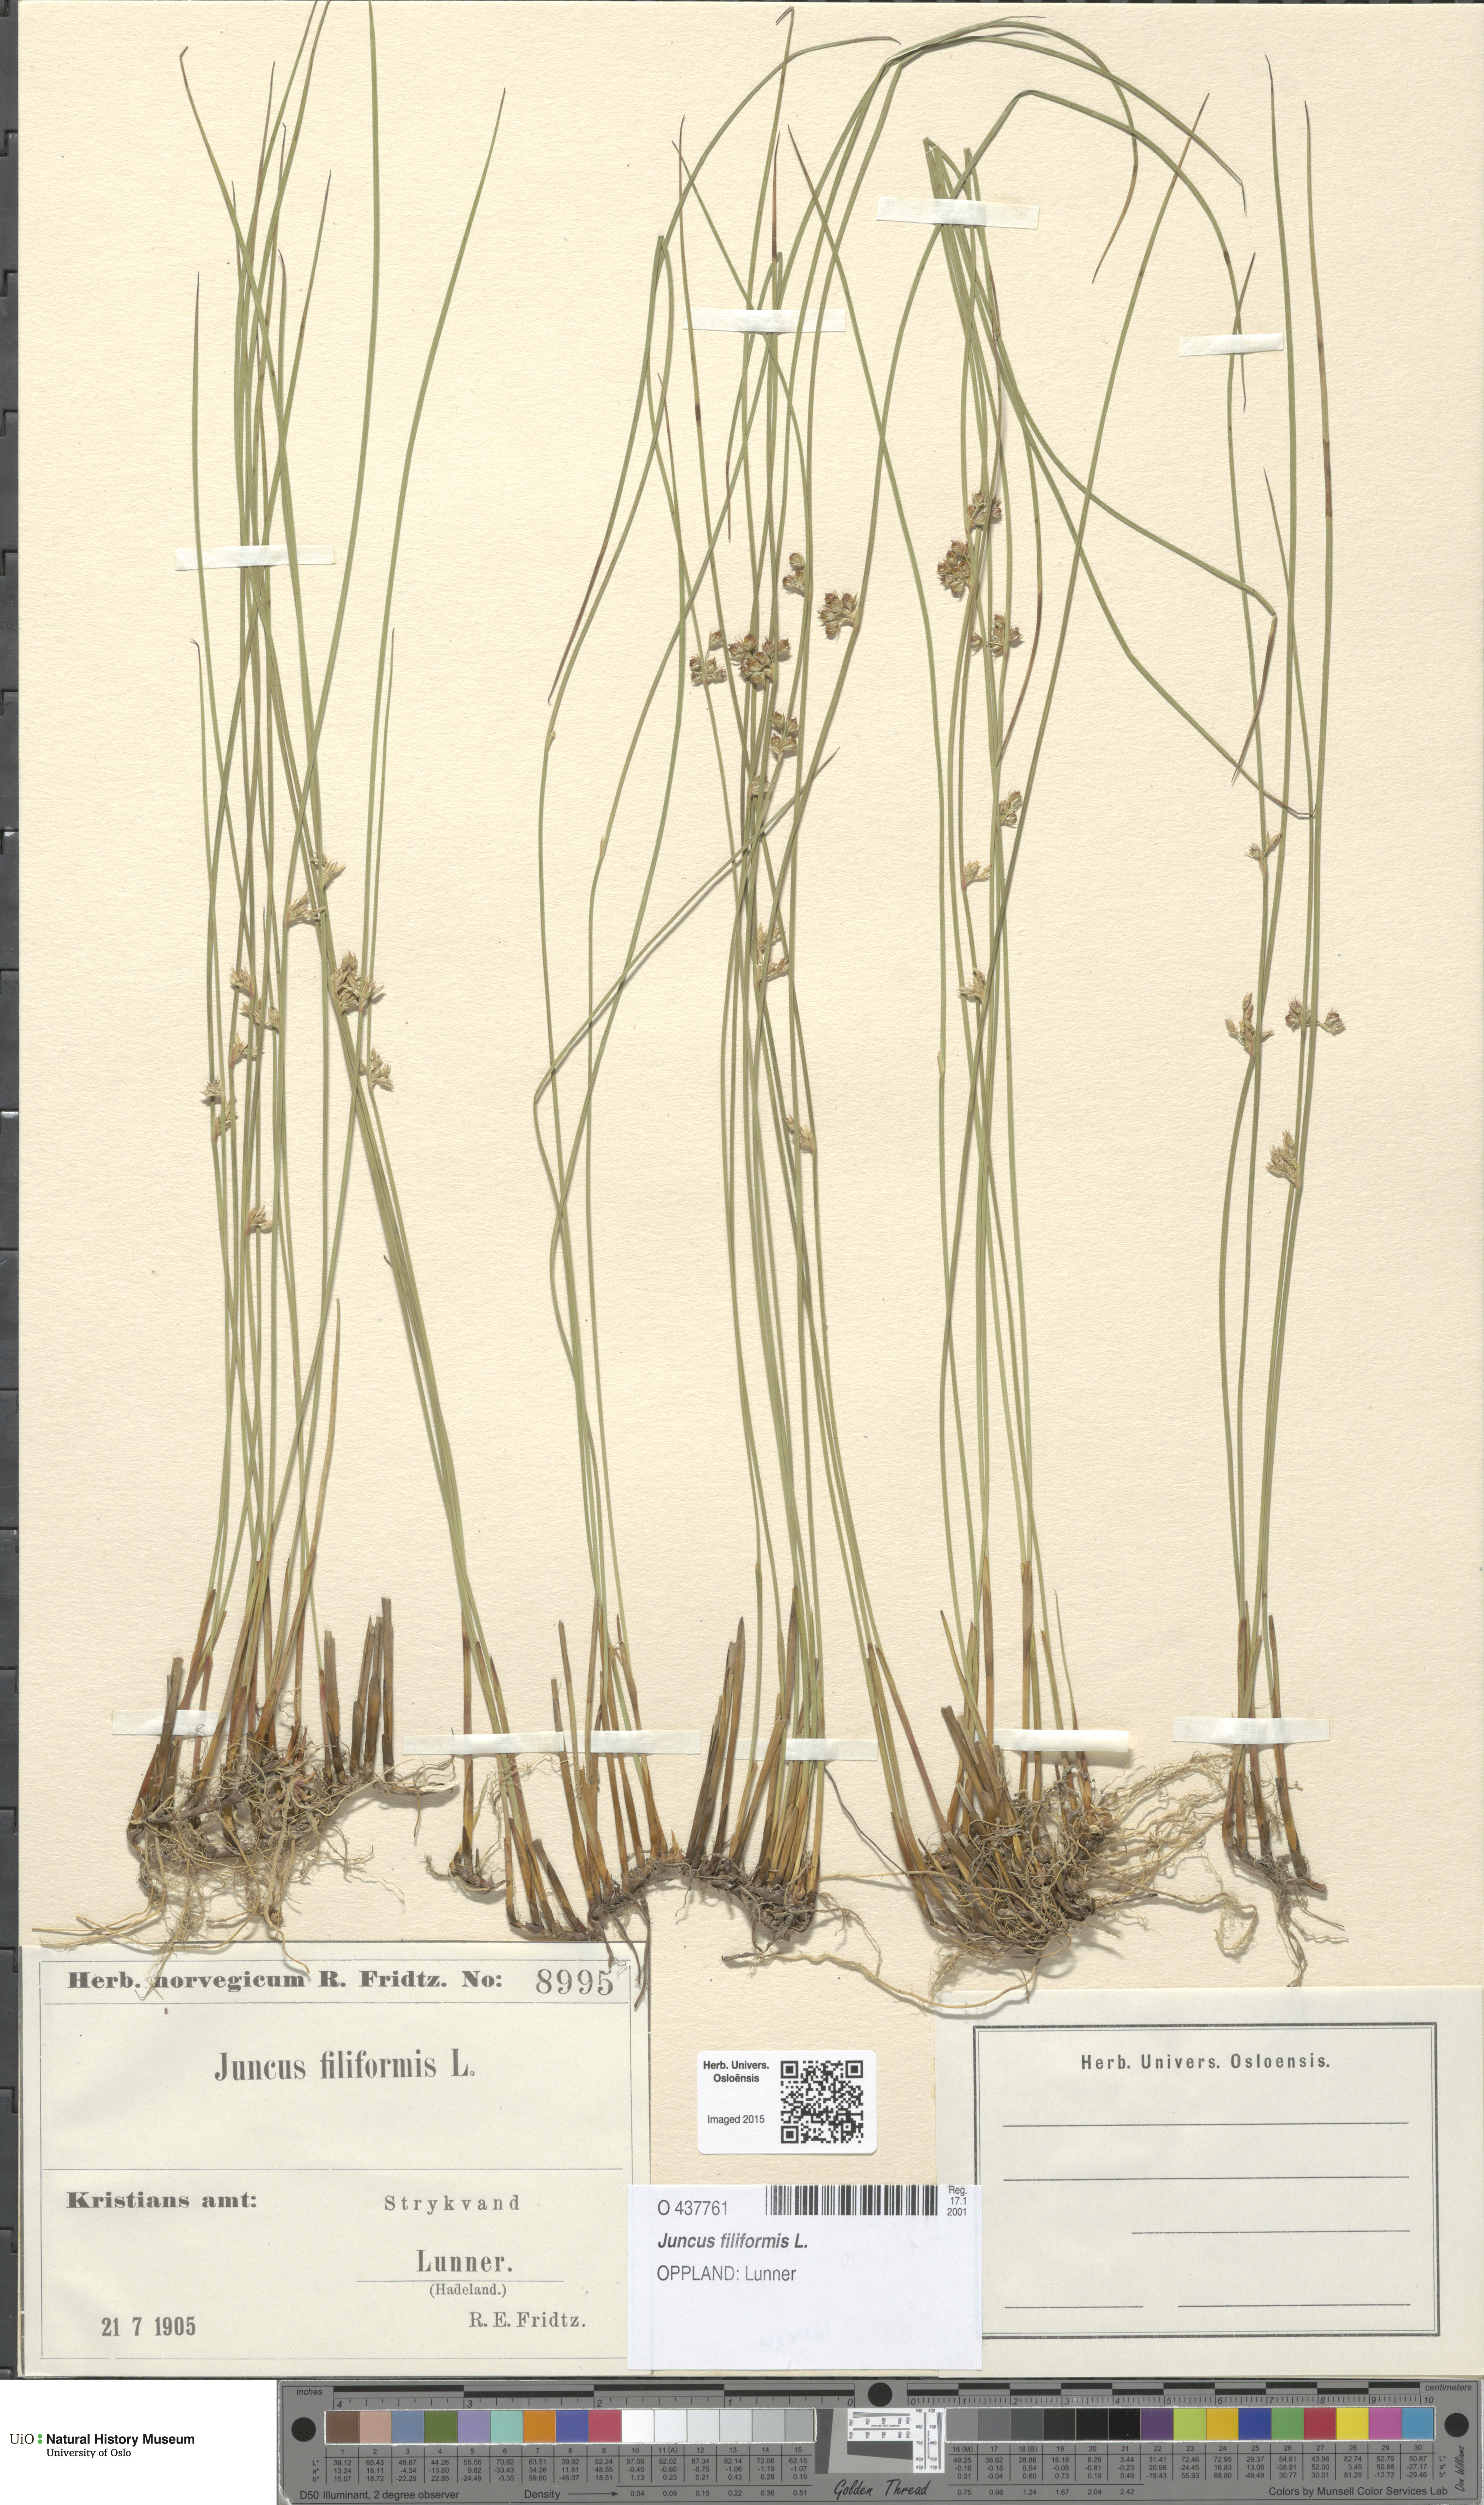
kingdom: Plantae
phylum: Tracheophyta
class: Liliopsida
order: Poales
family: Juncaceae
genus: Juncus
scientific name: Juncus filiformis
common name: Thread rush
